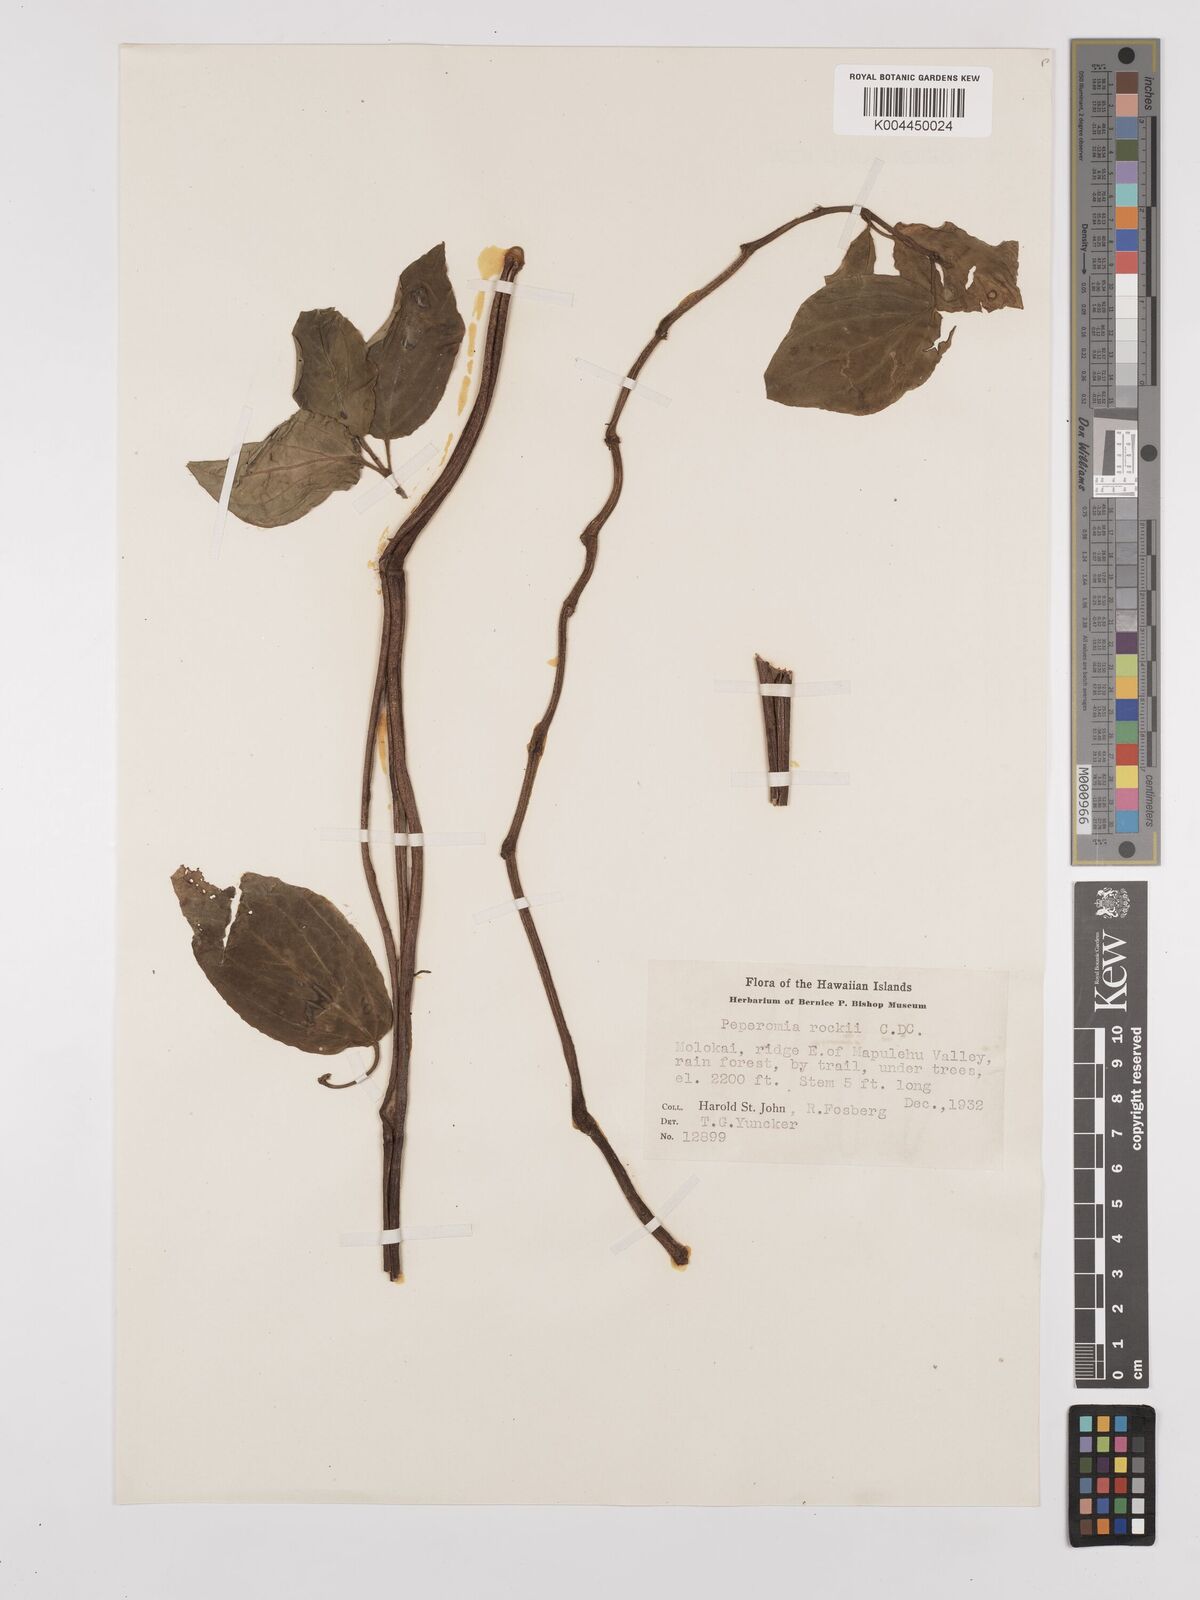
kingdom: Plantae
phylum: Tracheophyta
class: Magnoliopsida
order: Piperales
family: Piperaceae
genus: Peperomia
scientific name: Peperomia rockii
